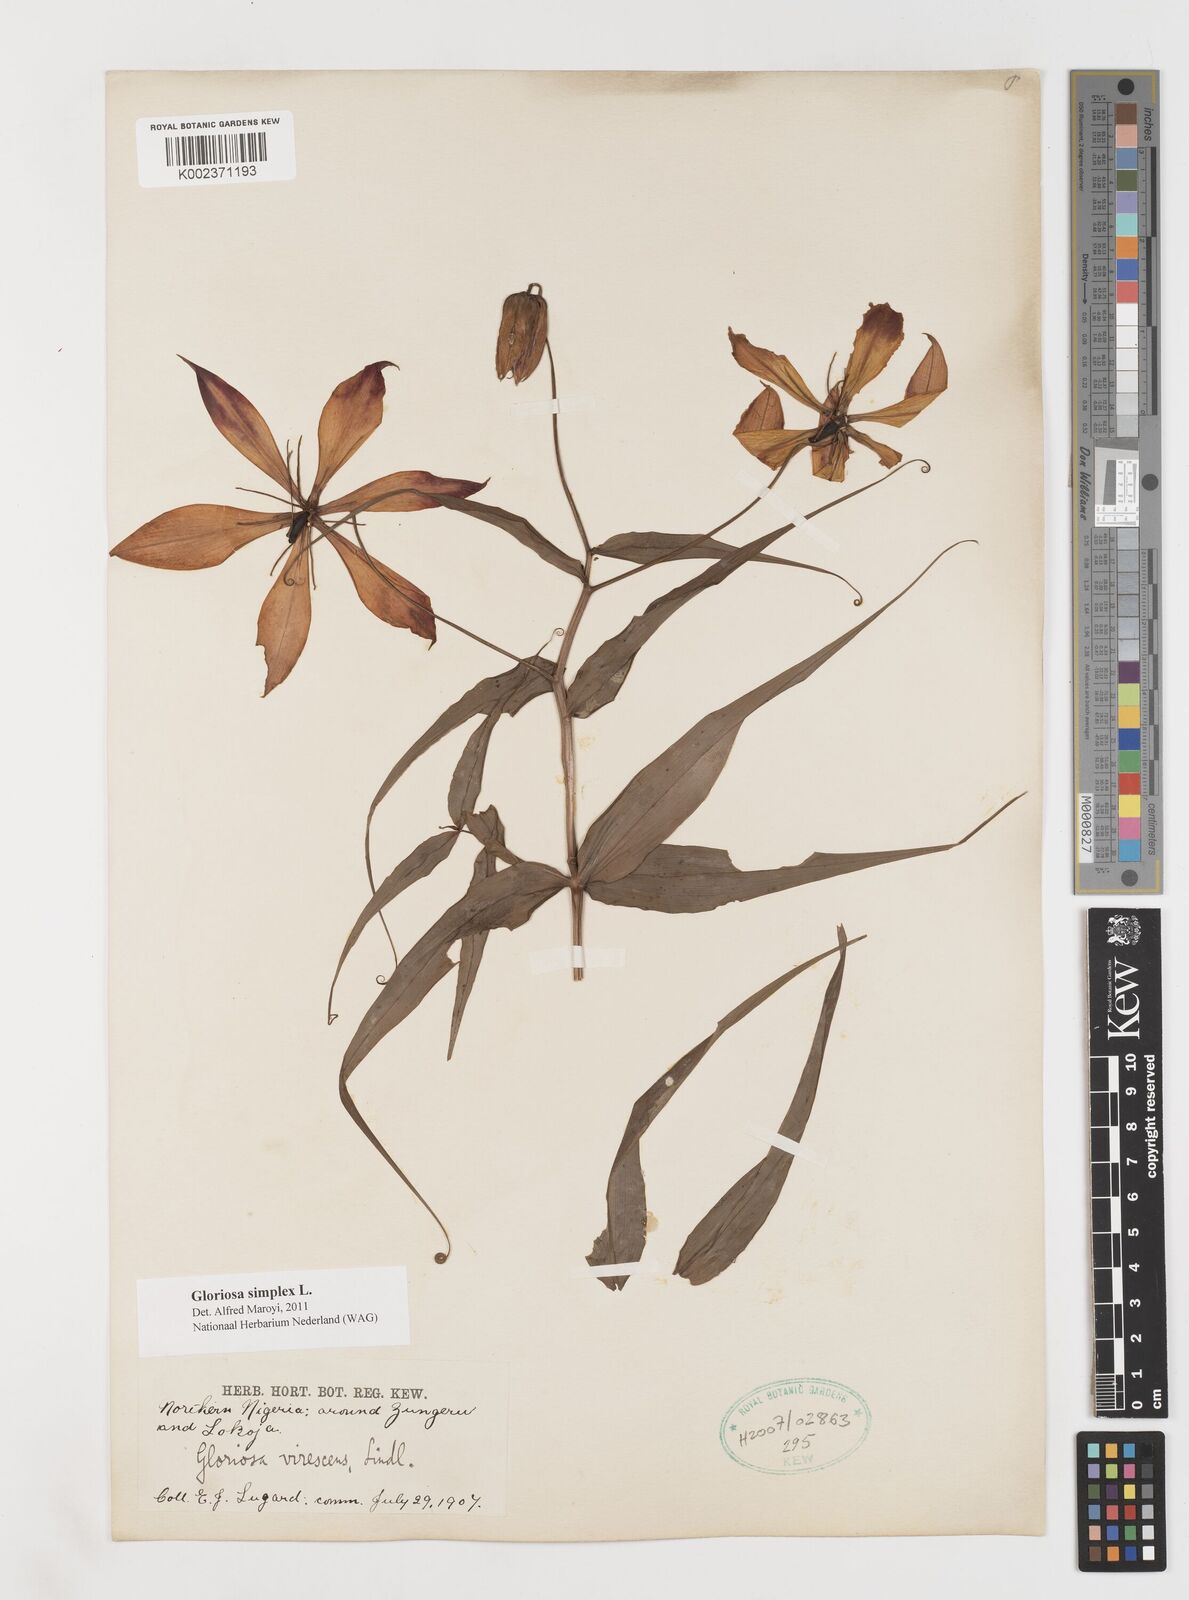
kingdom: Plantae
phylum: Tracheophyta
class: Liliopsida
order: Liliales
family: Colchicaceae
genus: Gloriosa
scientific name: Gloriosa simplex
